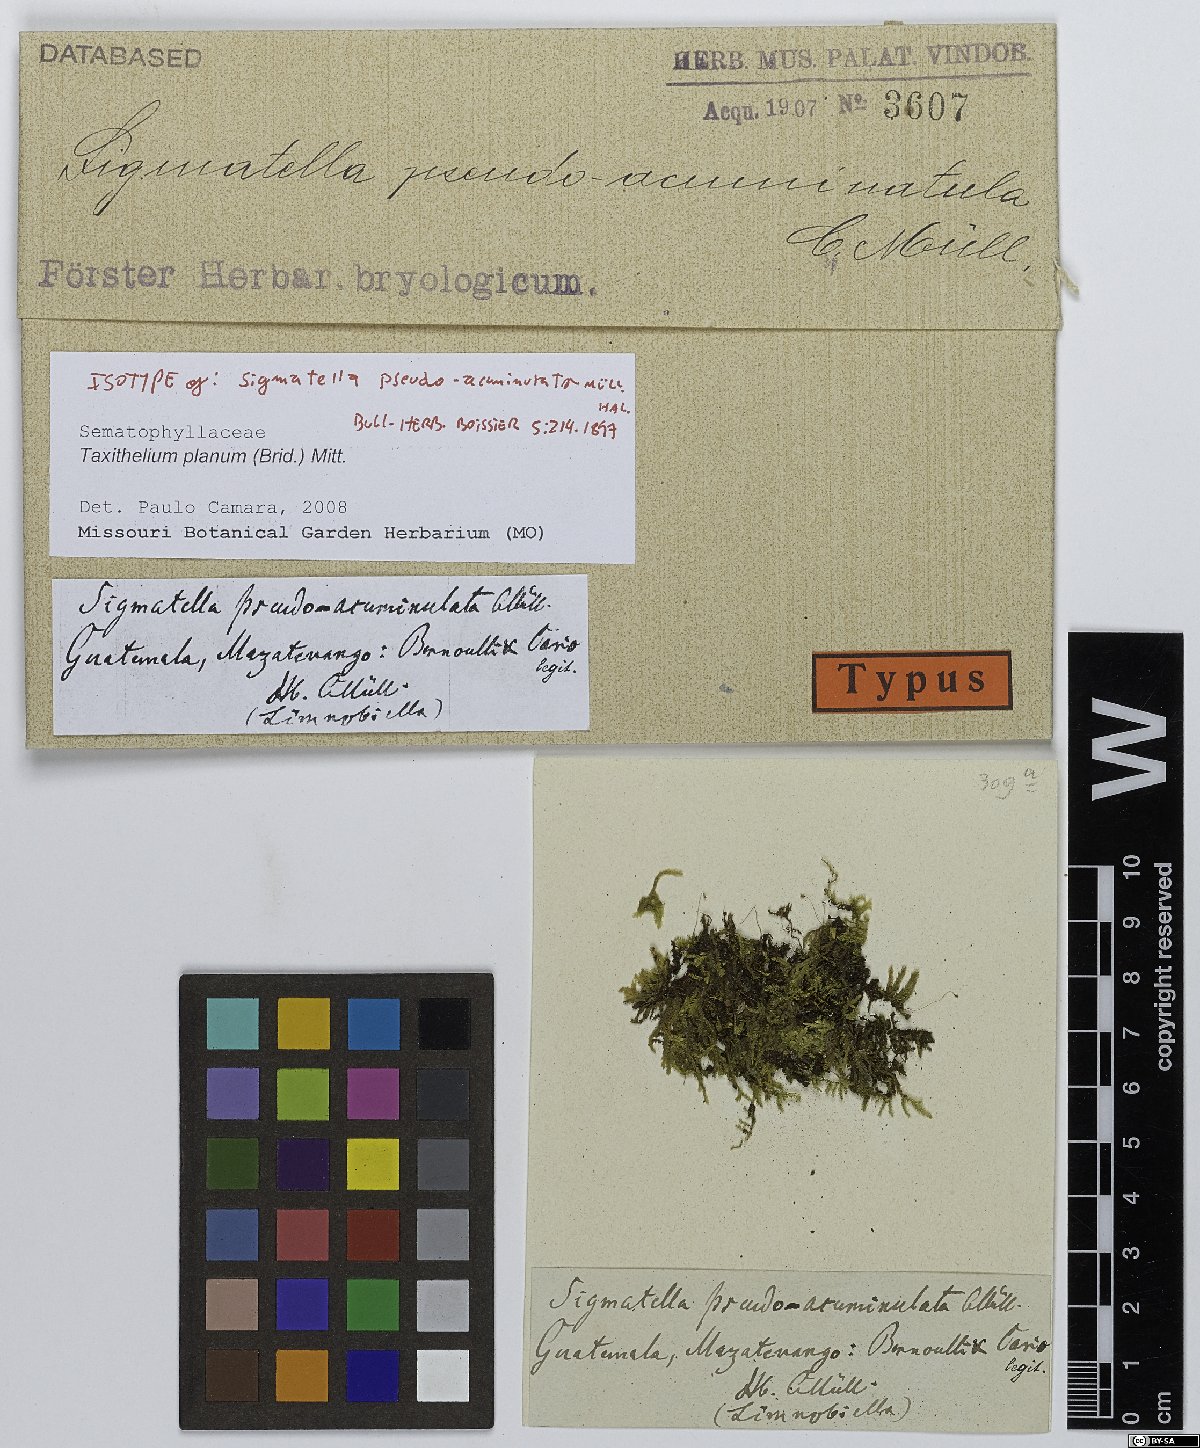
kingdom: Plantae
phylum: Bryophyta
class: Bryopsida
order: Hypnales
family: Pylaisiadelphaceae
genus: Taxithelium
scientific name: Taxithelium planum
